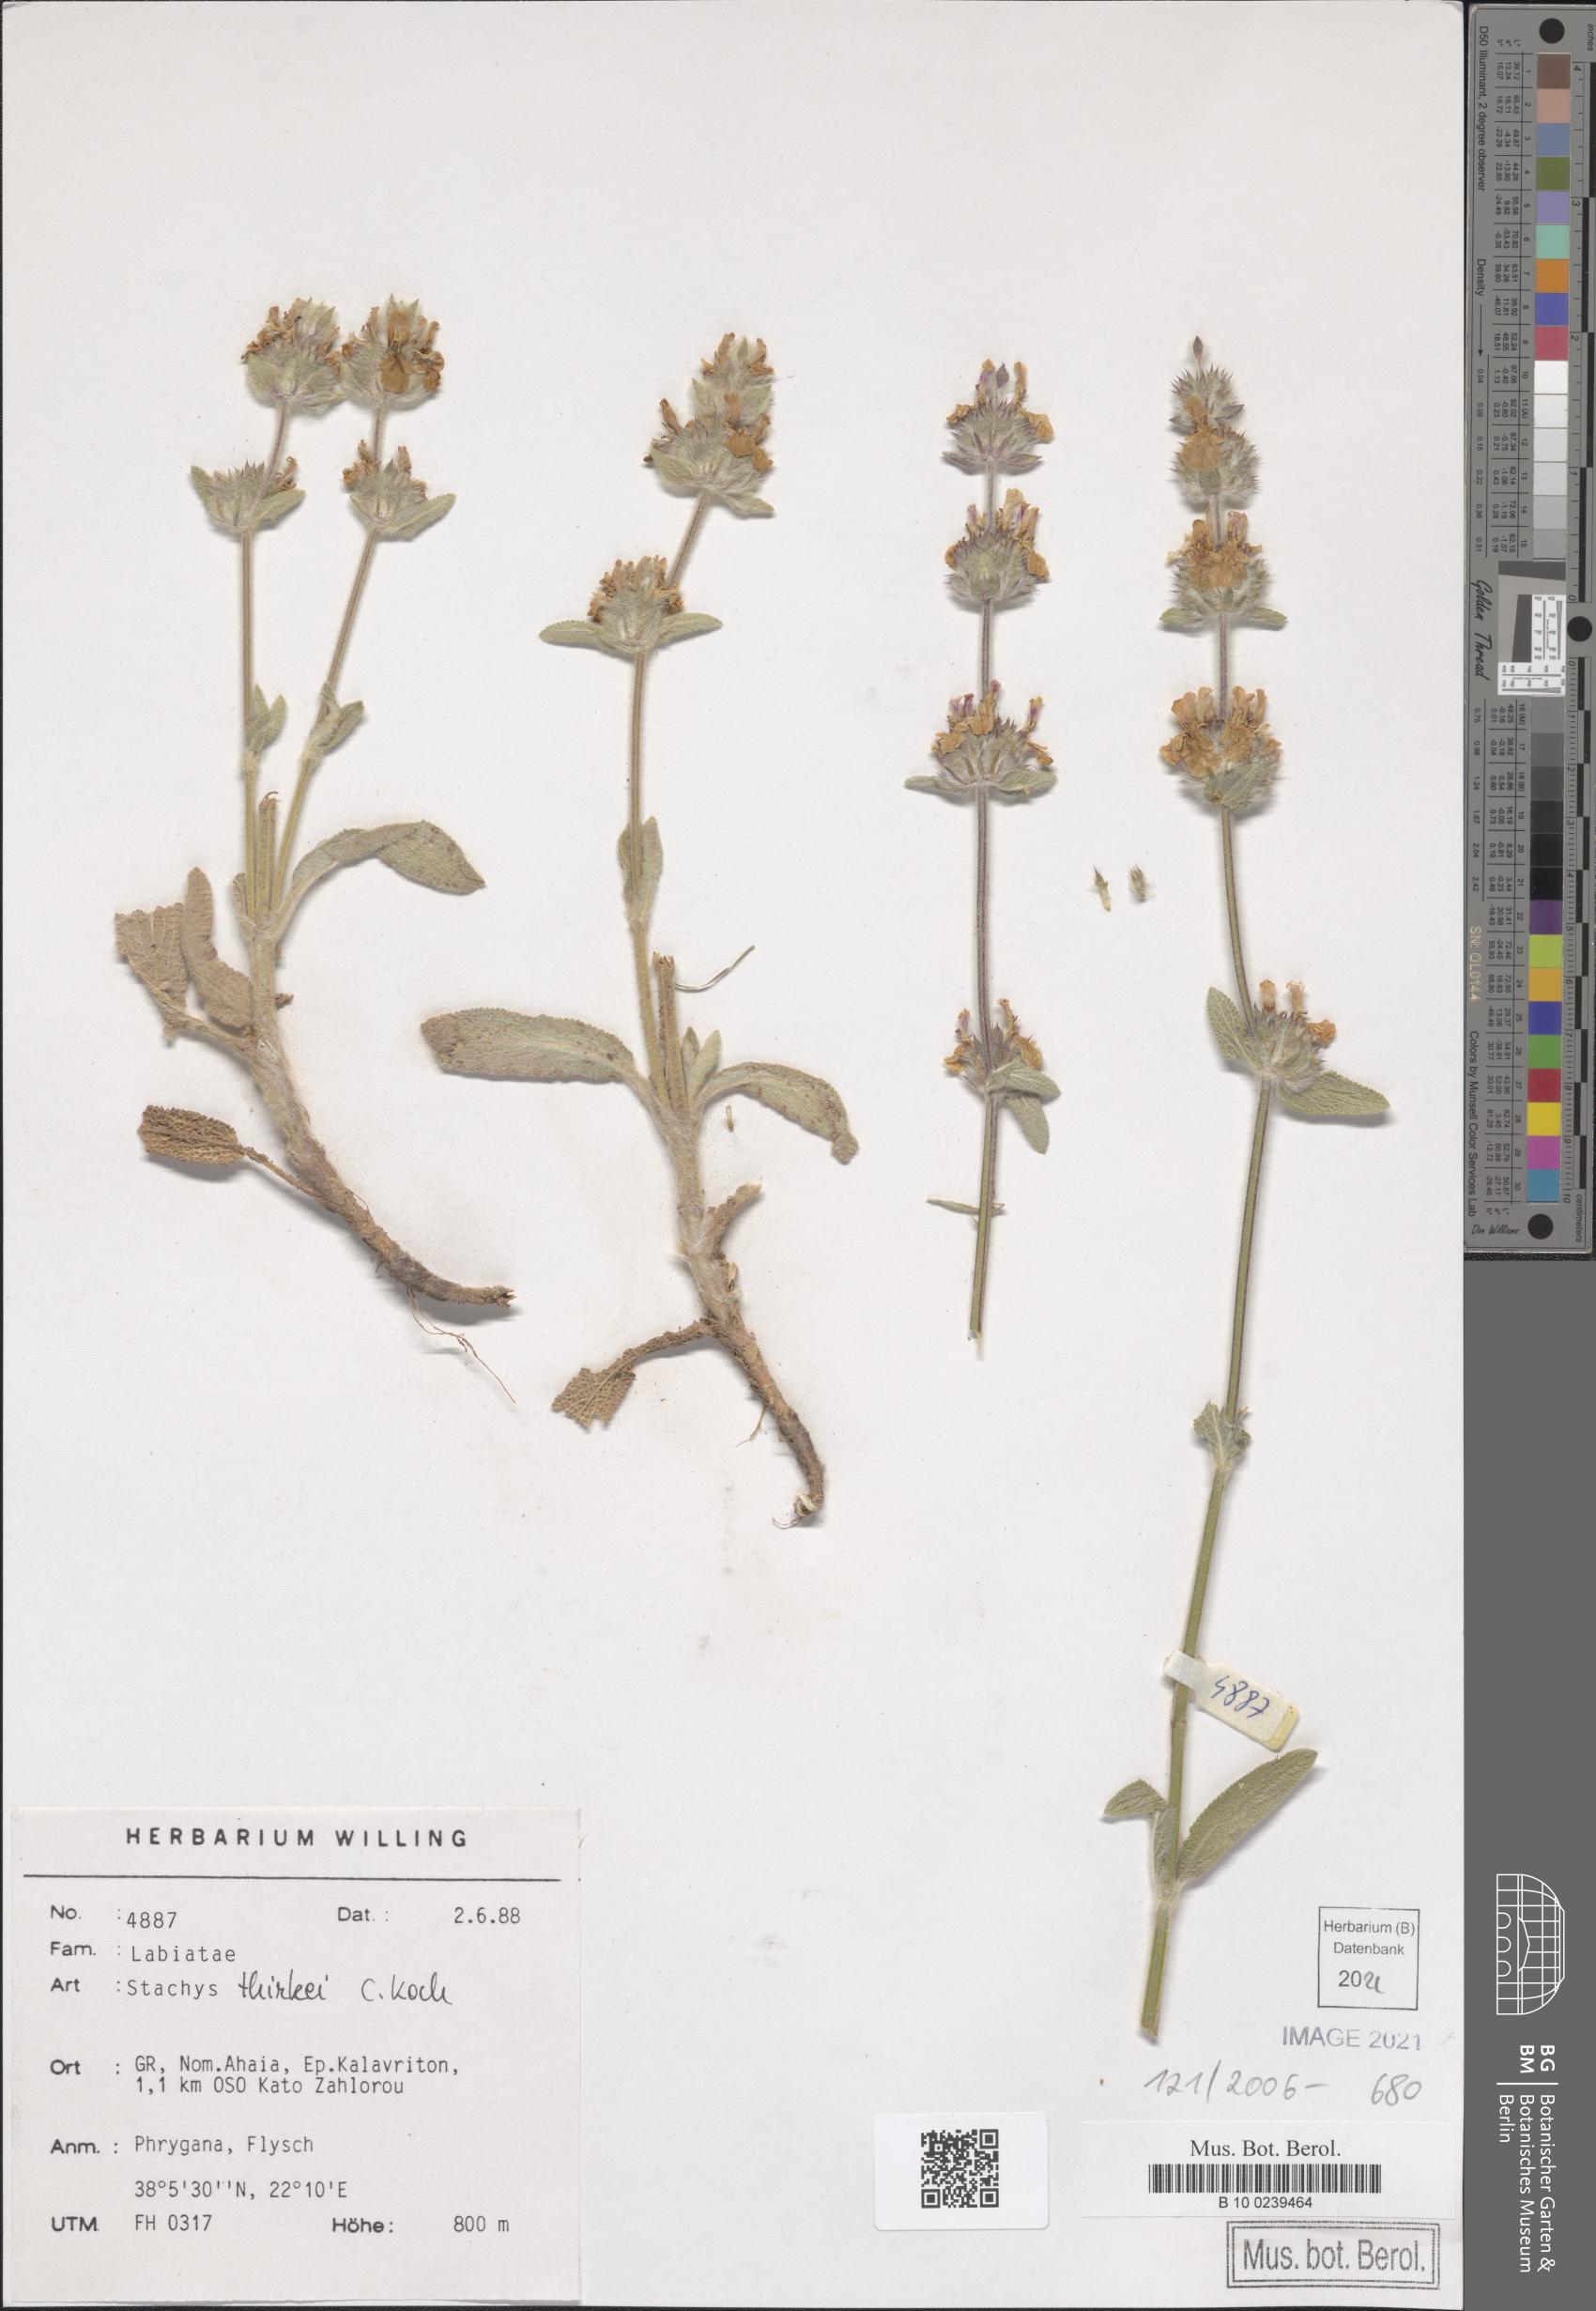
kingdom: Plantae
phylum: Tracheophyta
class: Magnoliopsida
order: Lamiales
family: Lamiaceae
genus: Stachys
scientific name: Stachys thirkei
